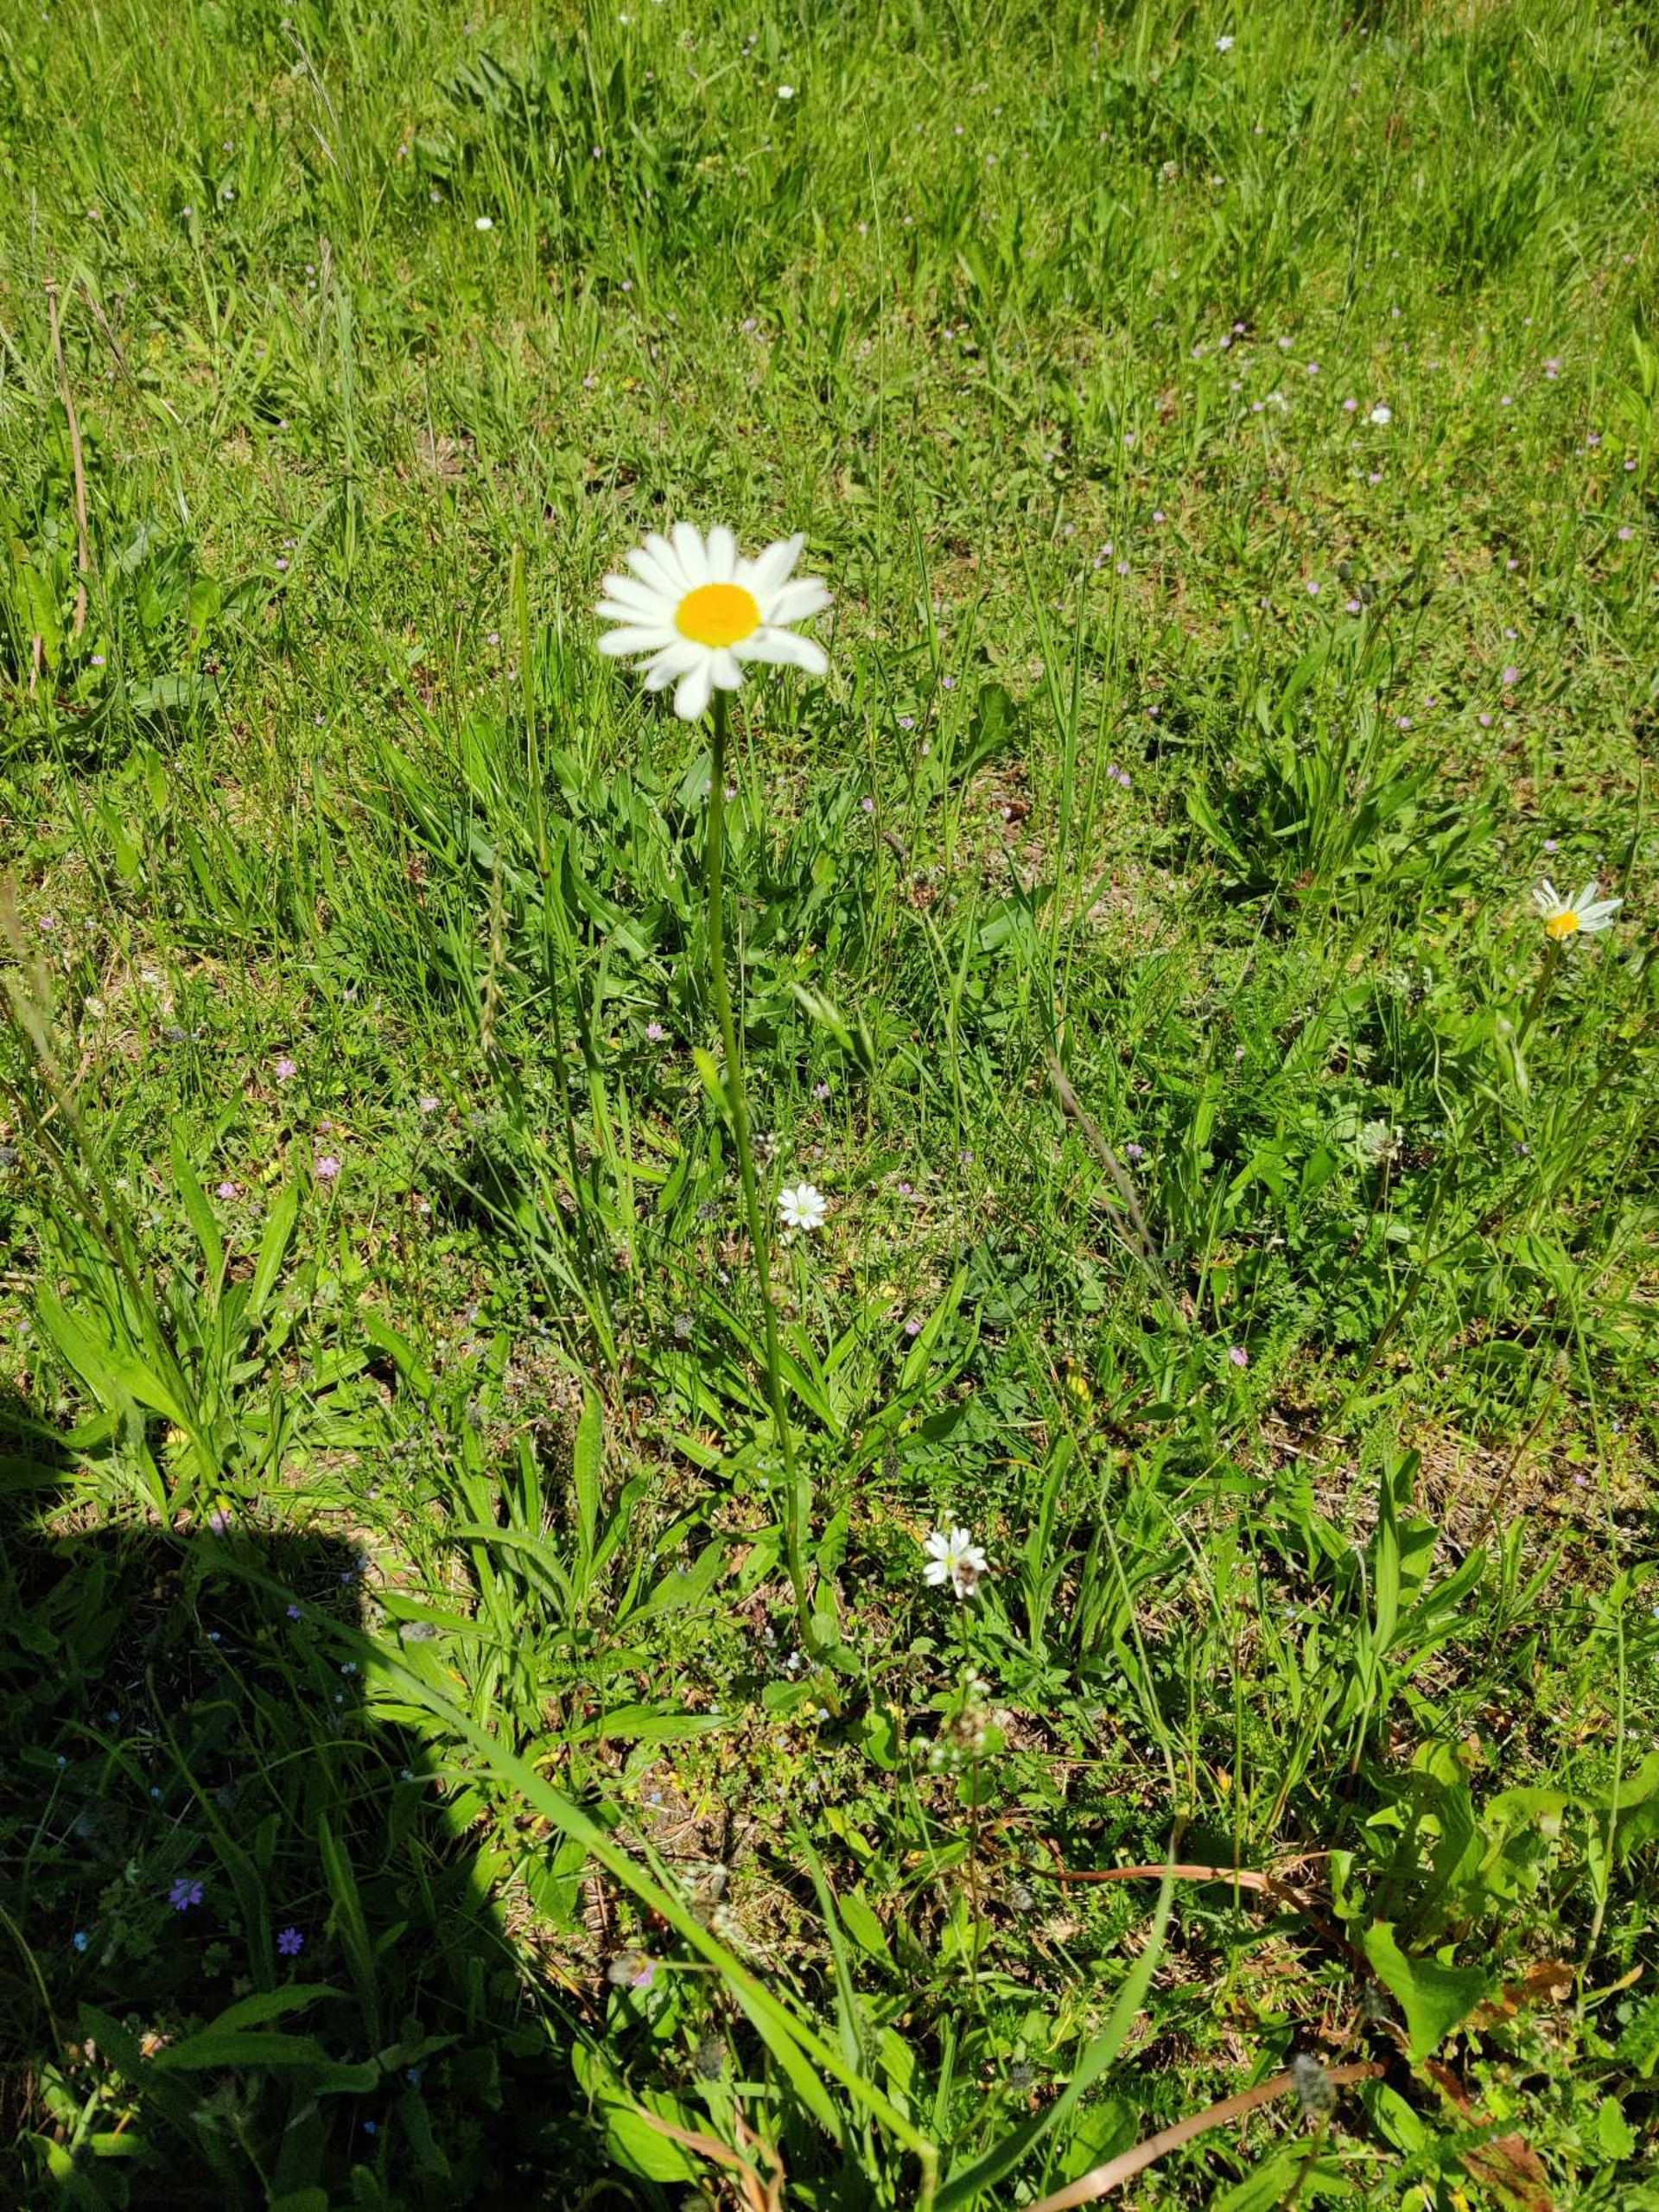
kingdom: Plantae
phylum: Tracheophyta
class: Magnoliopsida
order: Asterales
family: Asteraceae
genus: Leucanthemum
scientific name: Leucanthemum vulgare
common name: Hvid okseøje
